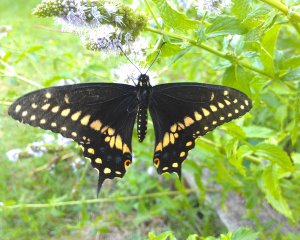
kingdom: Animalia
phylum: Arthropoda
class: Insecta
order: Lepidoptera
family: Papilionidae
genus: Papilio
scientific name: Papilio polyxenes
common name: Black Swallowtail
